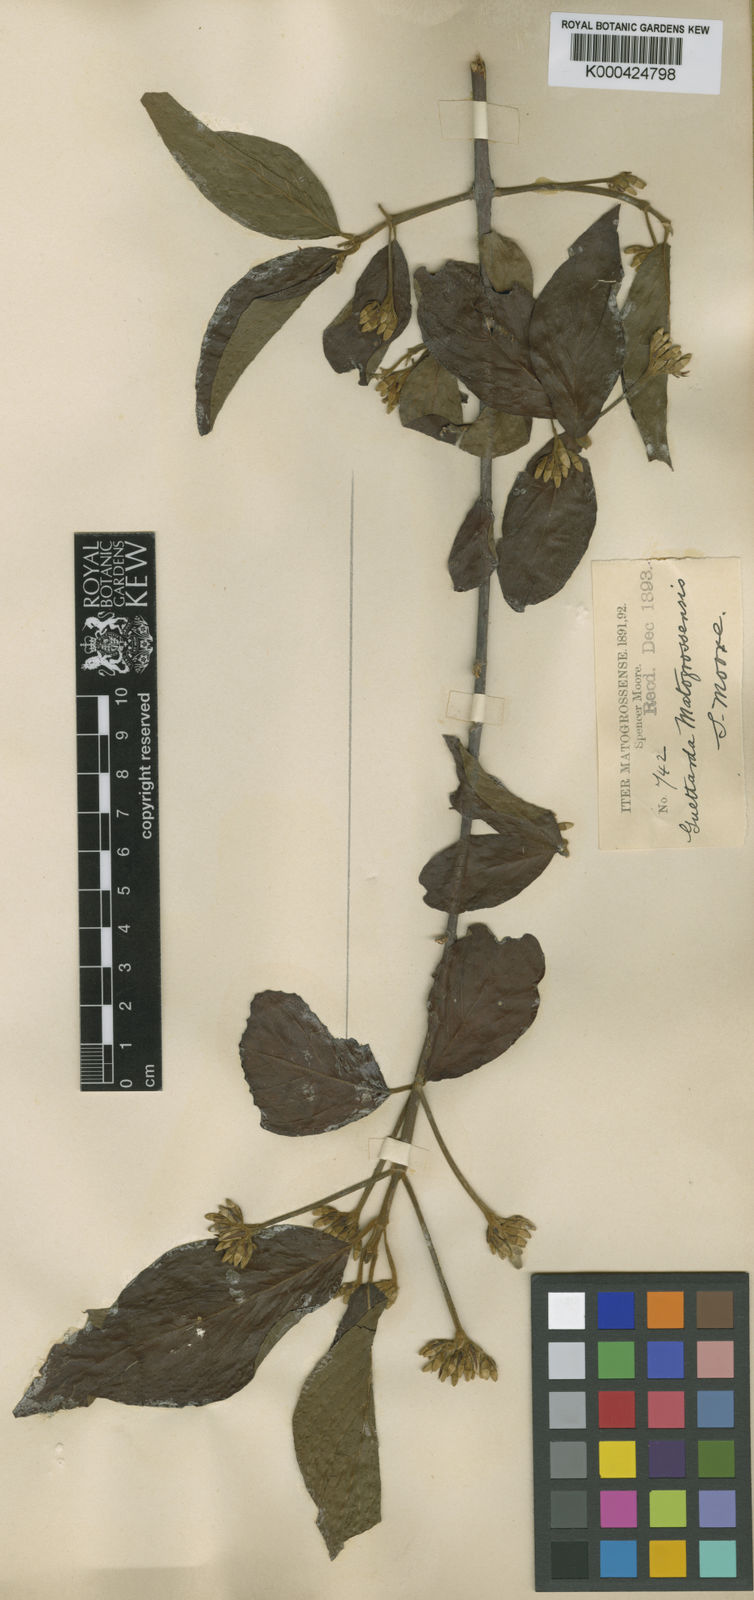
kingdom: Plantae
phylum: Tracheophyta
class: Magnoliopsida
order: Gentianales
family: Rubiaceae
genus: Guettarda
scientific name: Guettarda mattogrossensis
